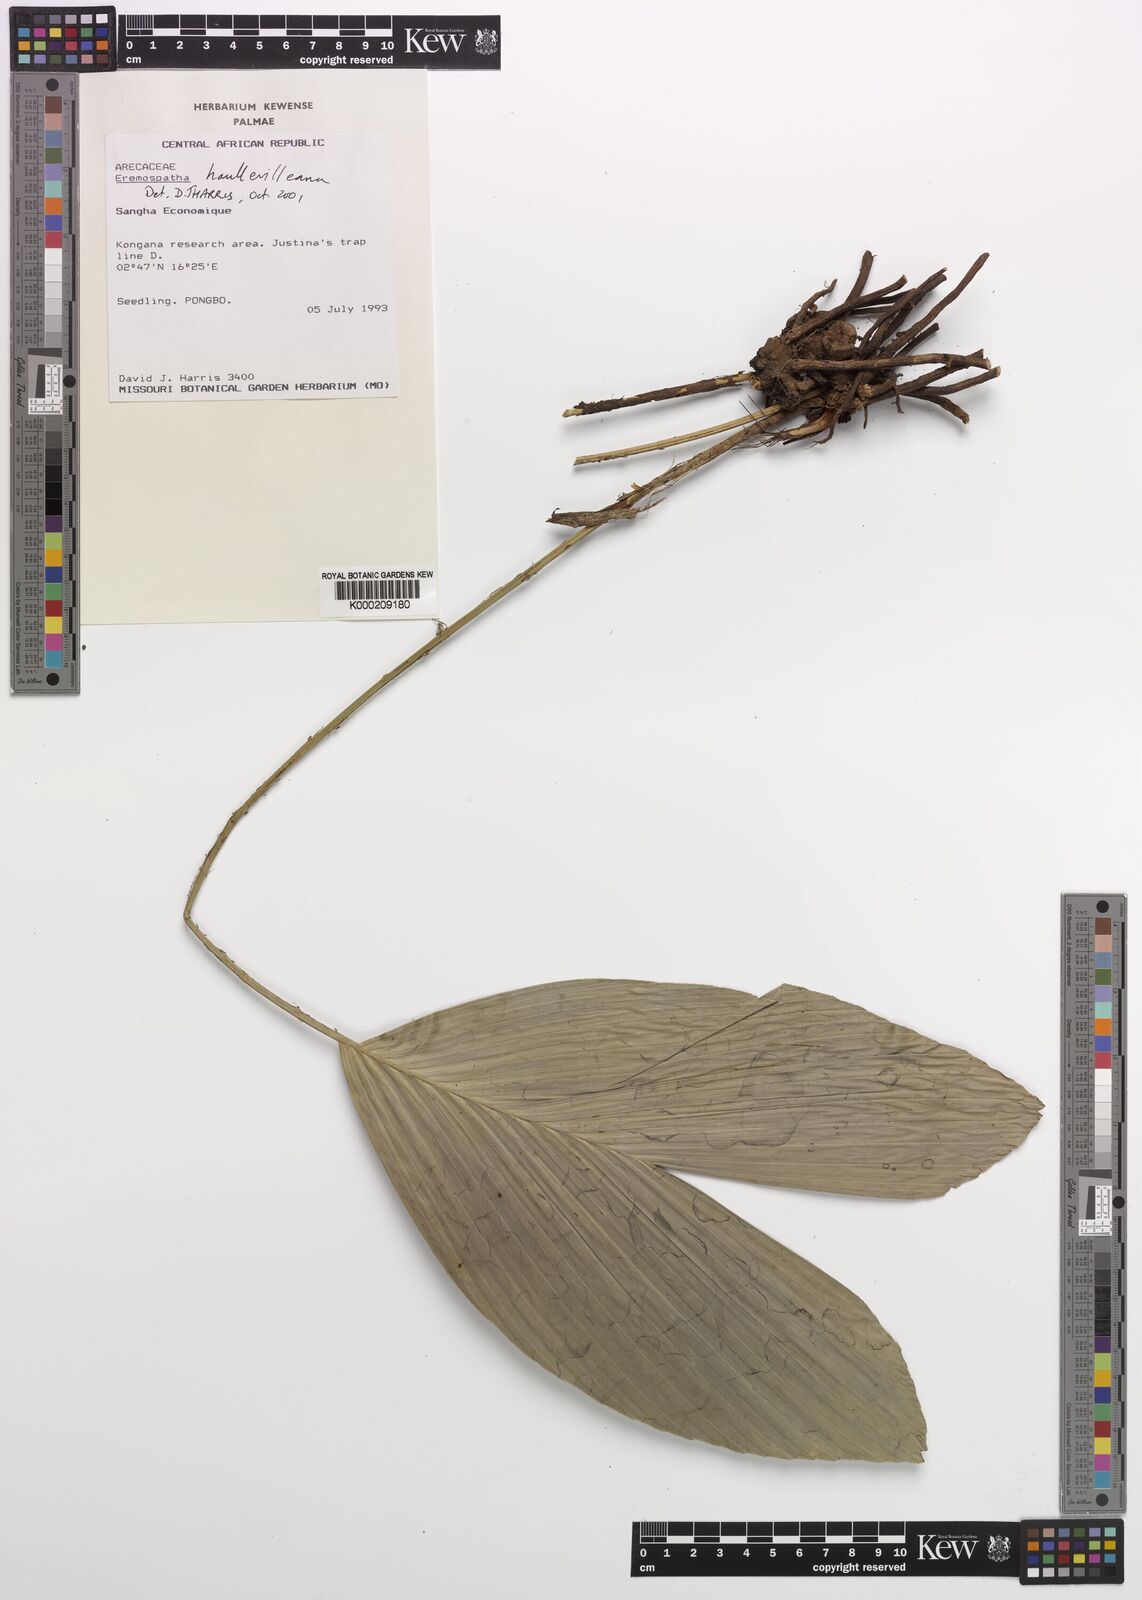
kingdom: Plantae
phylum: Tracheophyta
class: Liliopsida
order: Arecales
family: Arecaceae
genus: Eremospatha
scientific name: Eremospatha haullevilleana
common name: Rattan
